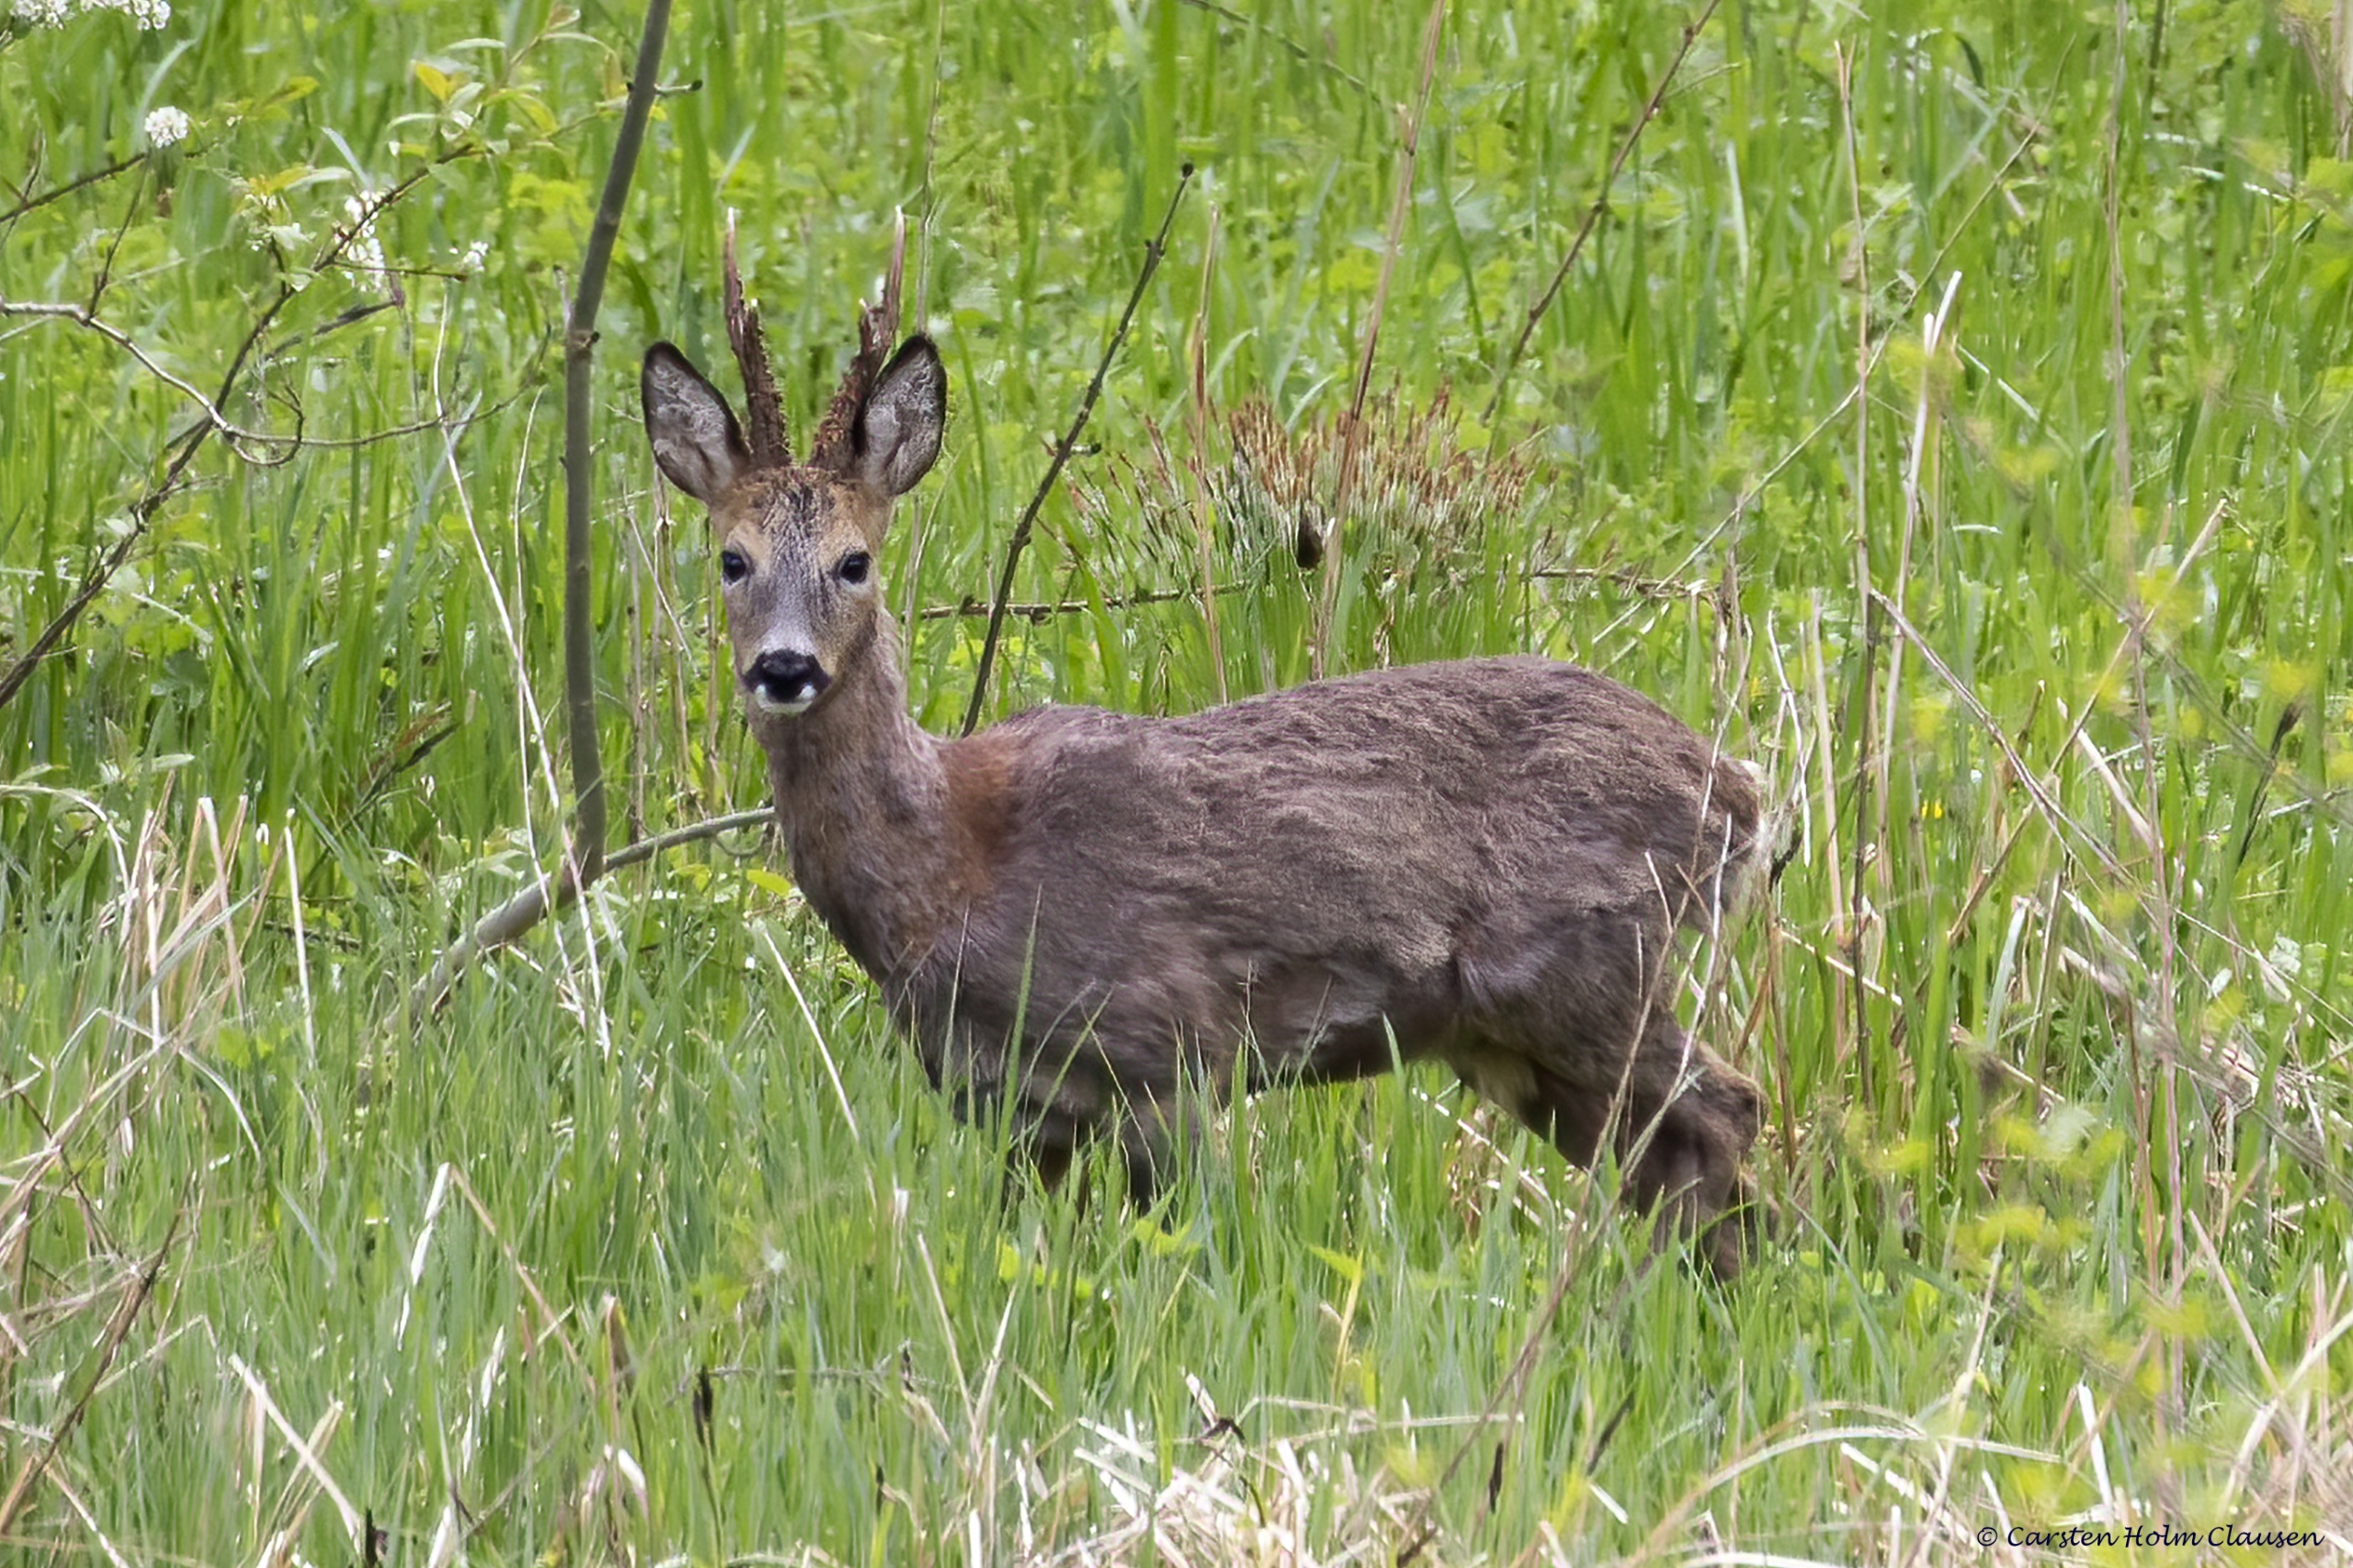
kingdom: Animalia
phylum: Chordata
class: Mammalia
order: Artiodactyla
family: Cervidae
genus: Capreolus
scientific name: Capreolus capreolus
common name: Rådyr
